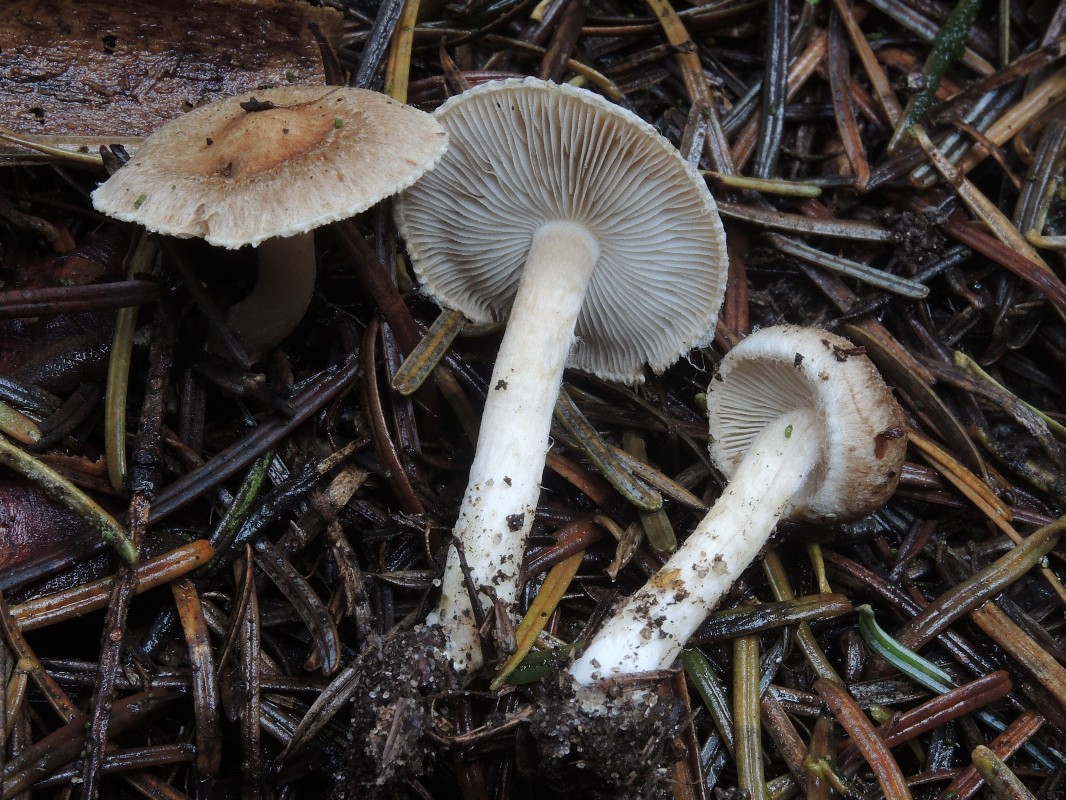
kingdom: Fungi
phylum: Basidiomycota
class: Agaricomycetes
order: Agaricales
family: Inocybaceae
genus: Inocybe
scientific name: Inocybe
